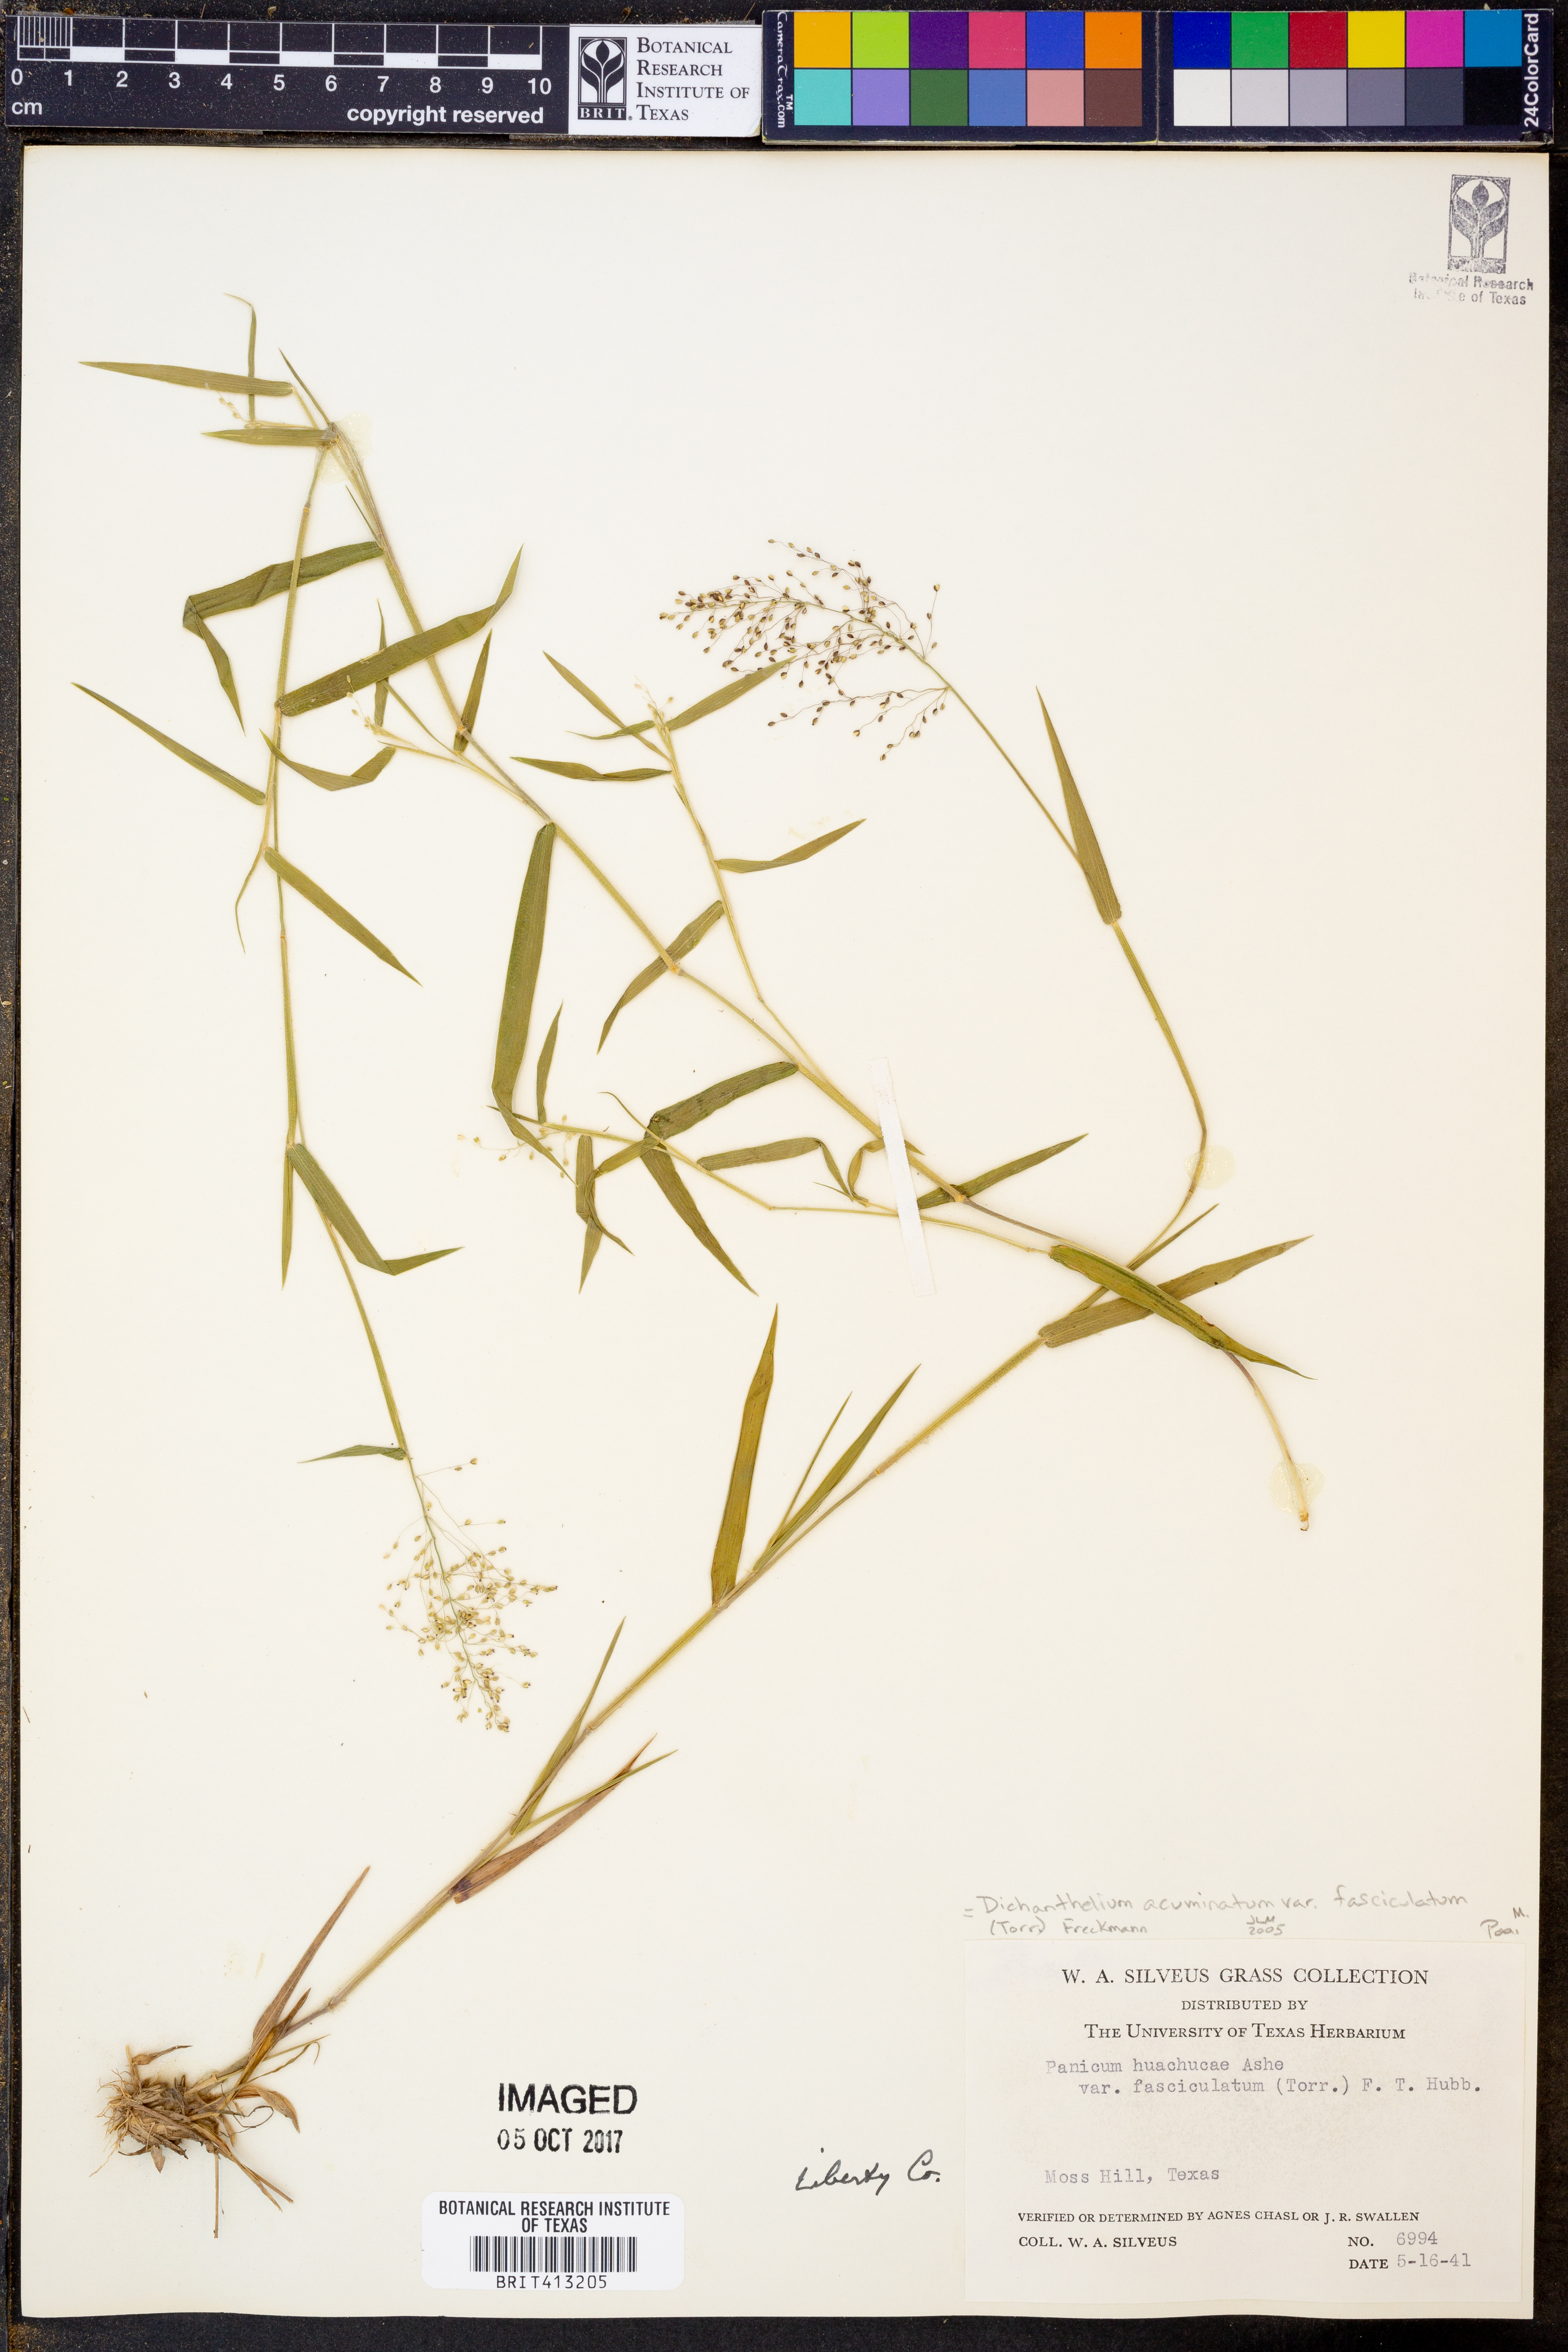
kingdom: Plantae
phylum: Tracheophyta
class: Liliopsida
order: Poales
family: Poaceae
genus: Dichanthelium
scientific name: Dichanthelium lanuginosum
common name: Woolly panicgrass
